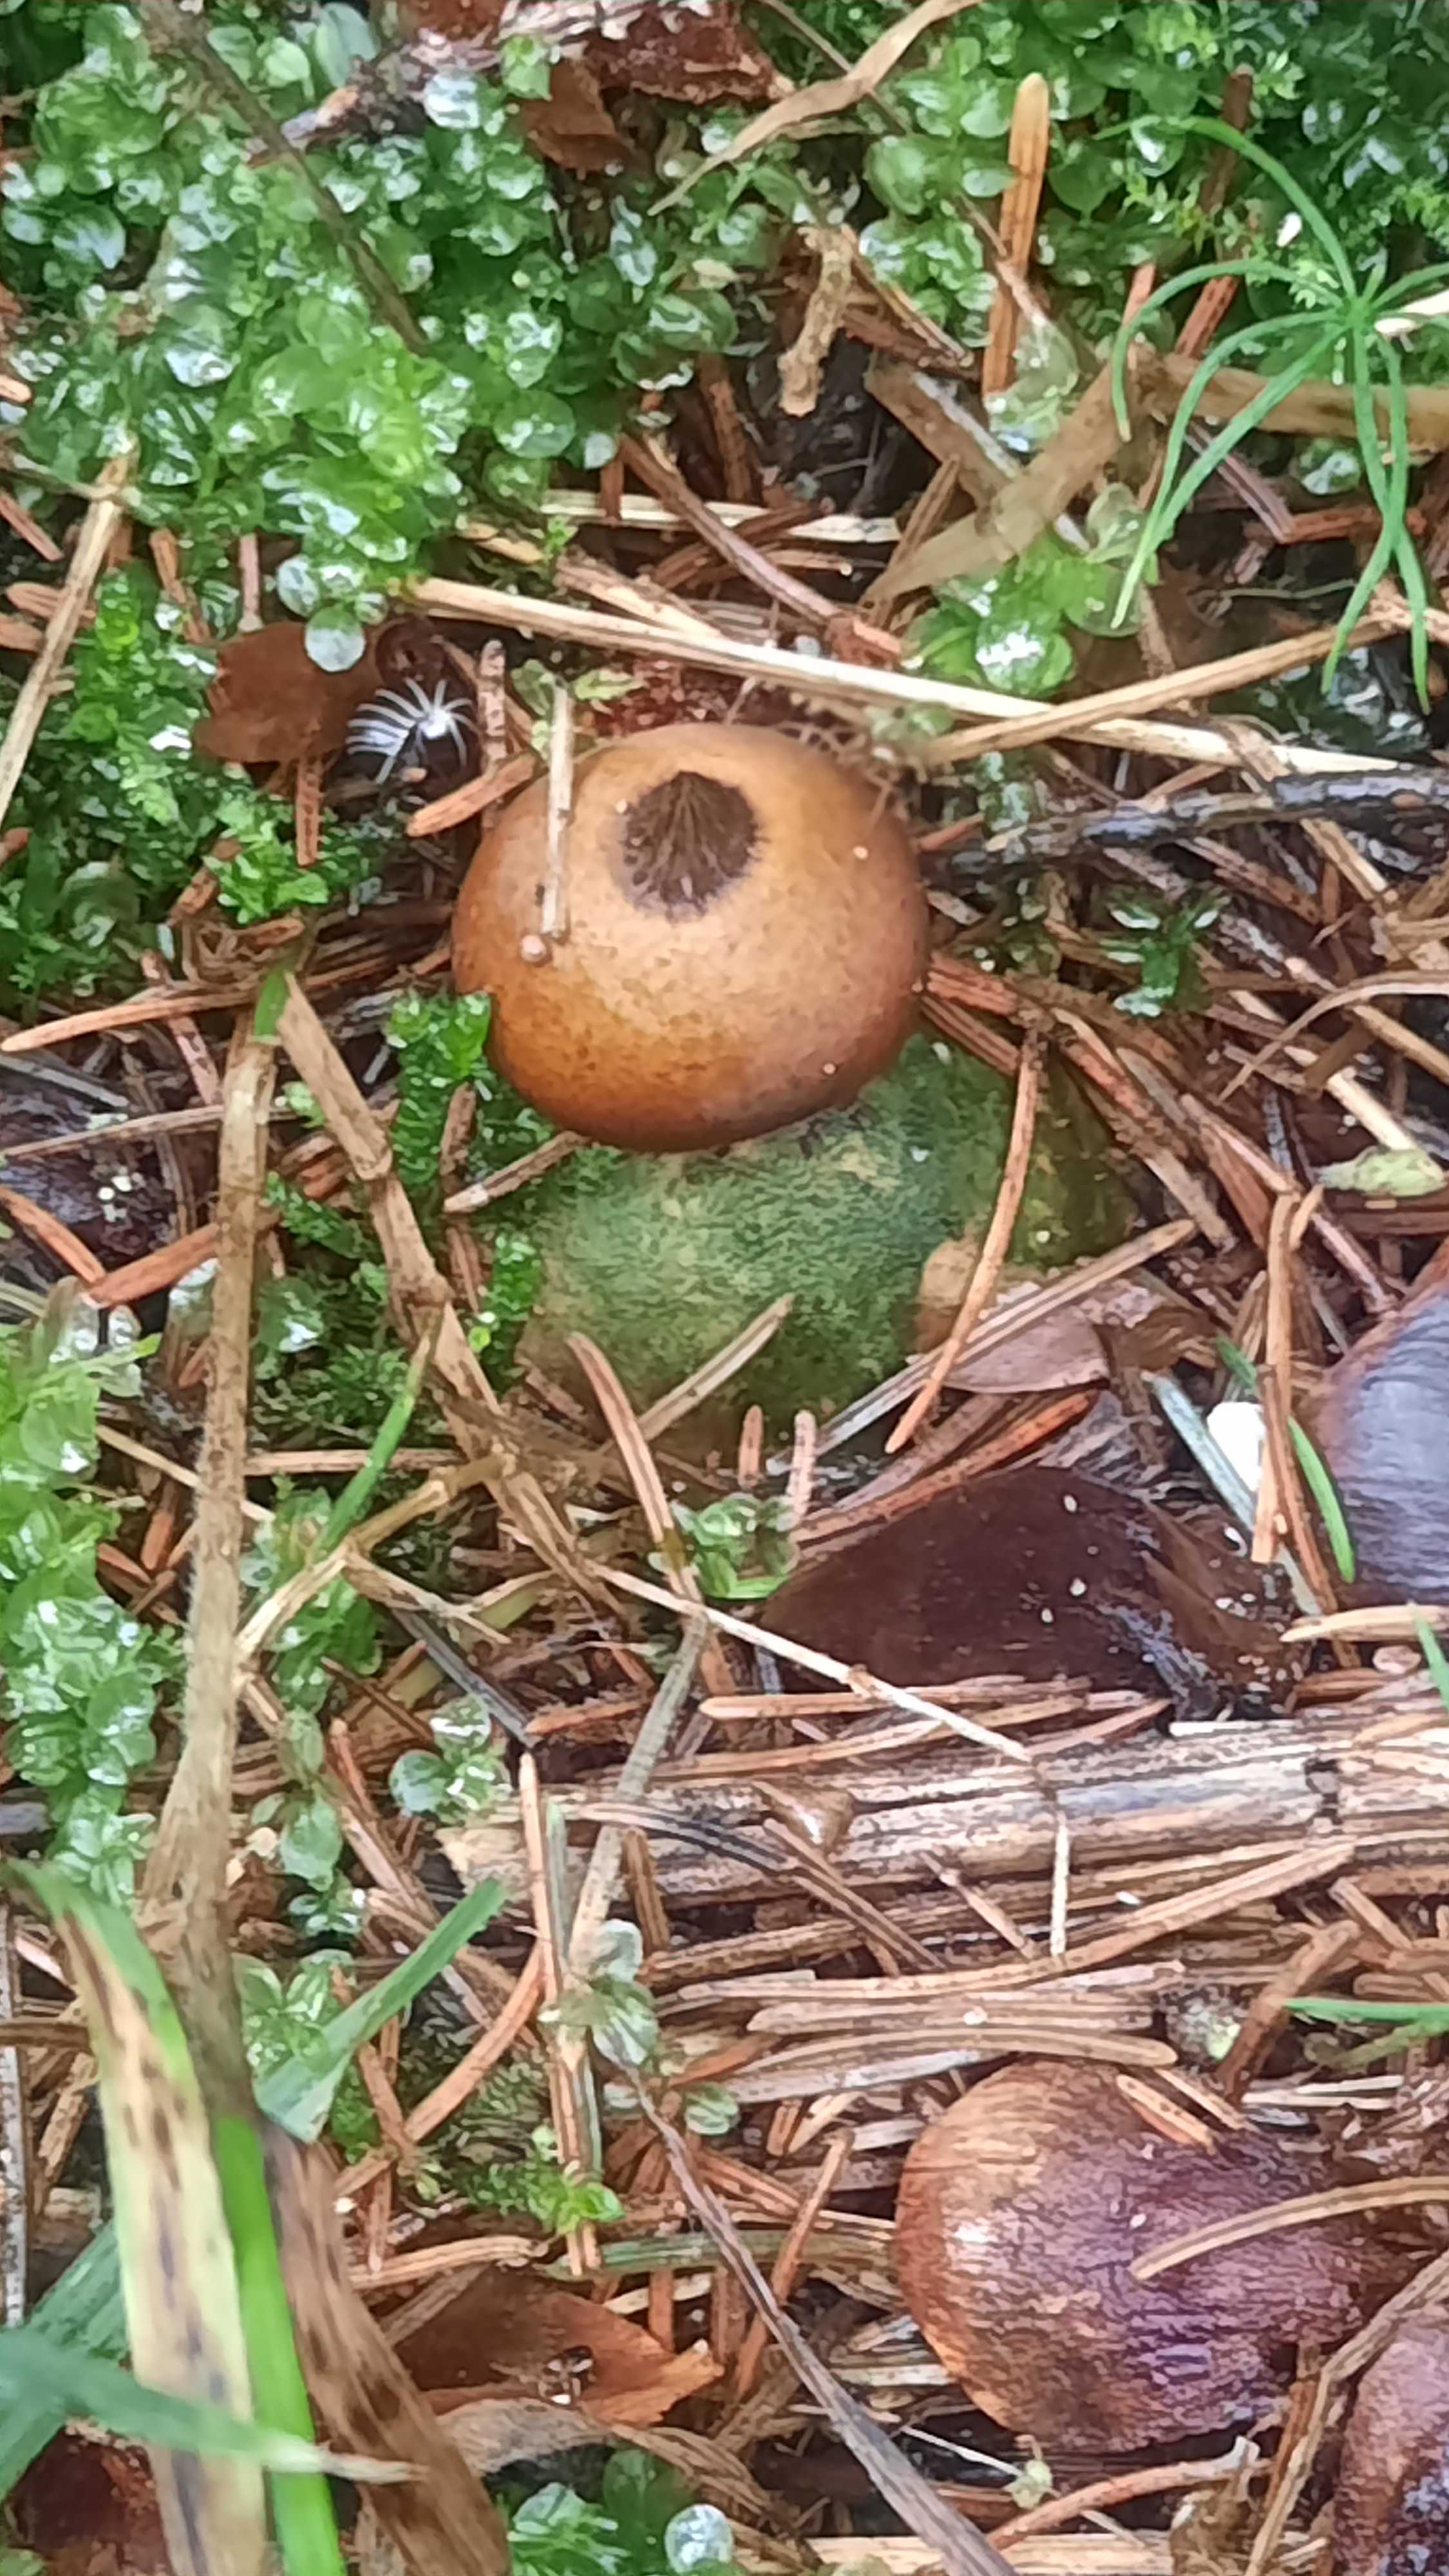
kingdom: Fungi
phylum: Basidiomycota
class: Agaricomycetes
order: Geastrales
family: Geastraceae
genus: Geastrum
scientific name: Geastrum pectinatum
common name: stilket stjernebold
